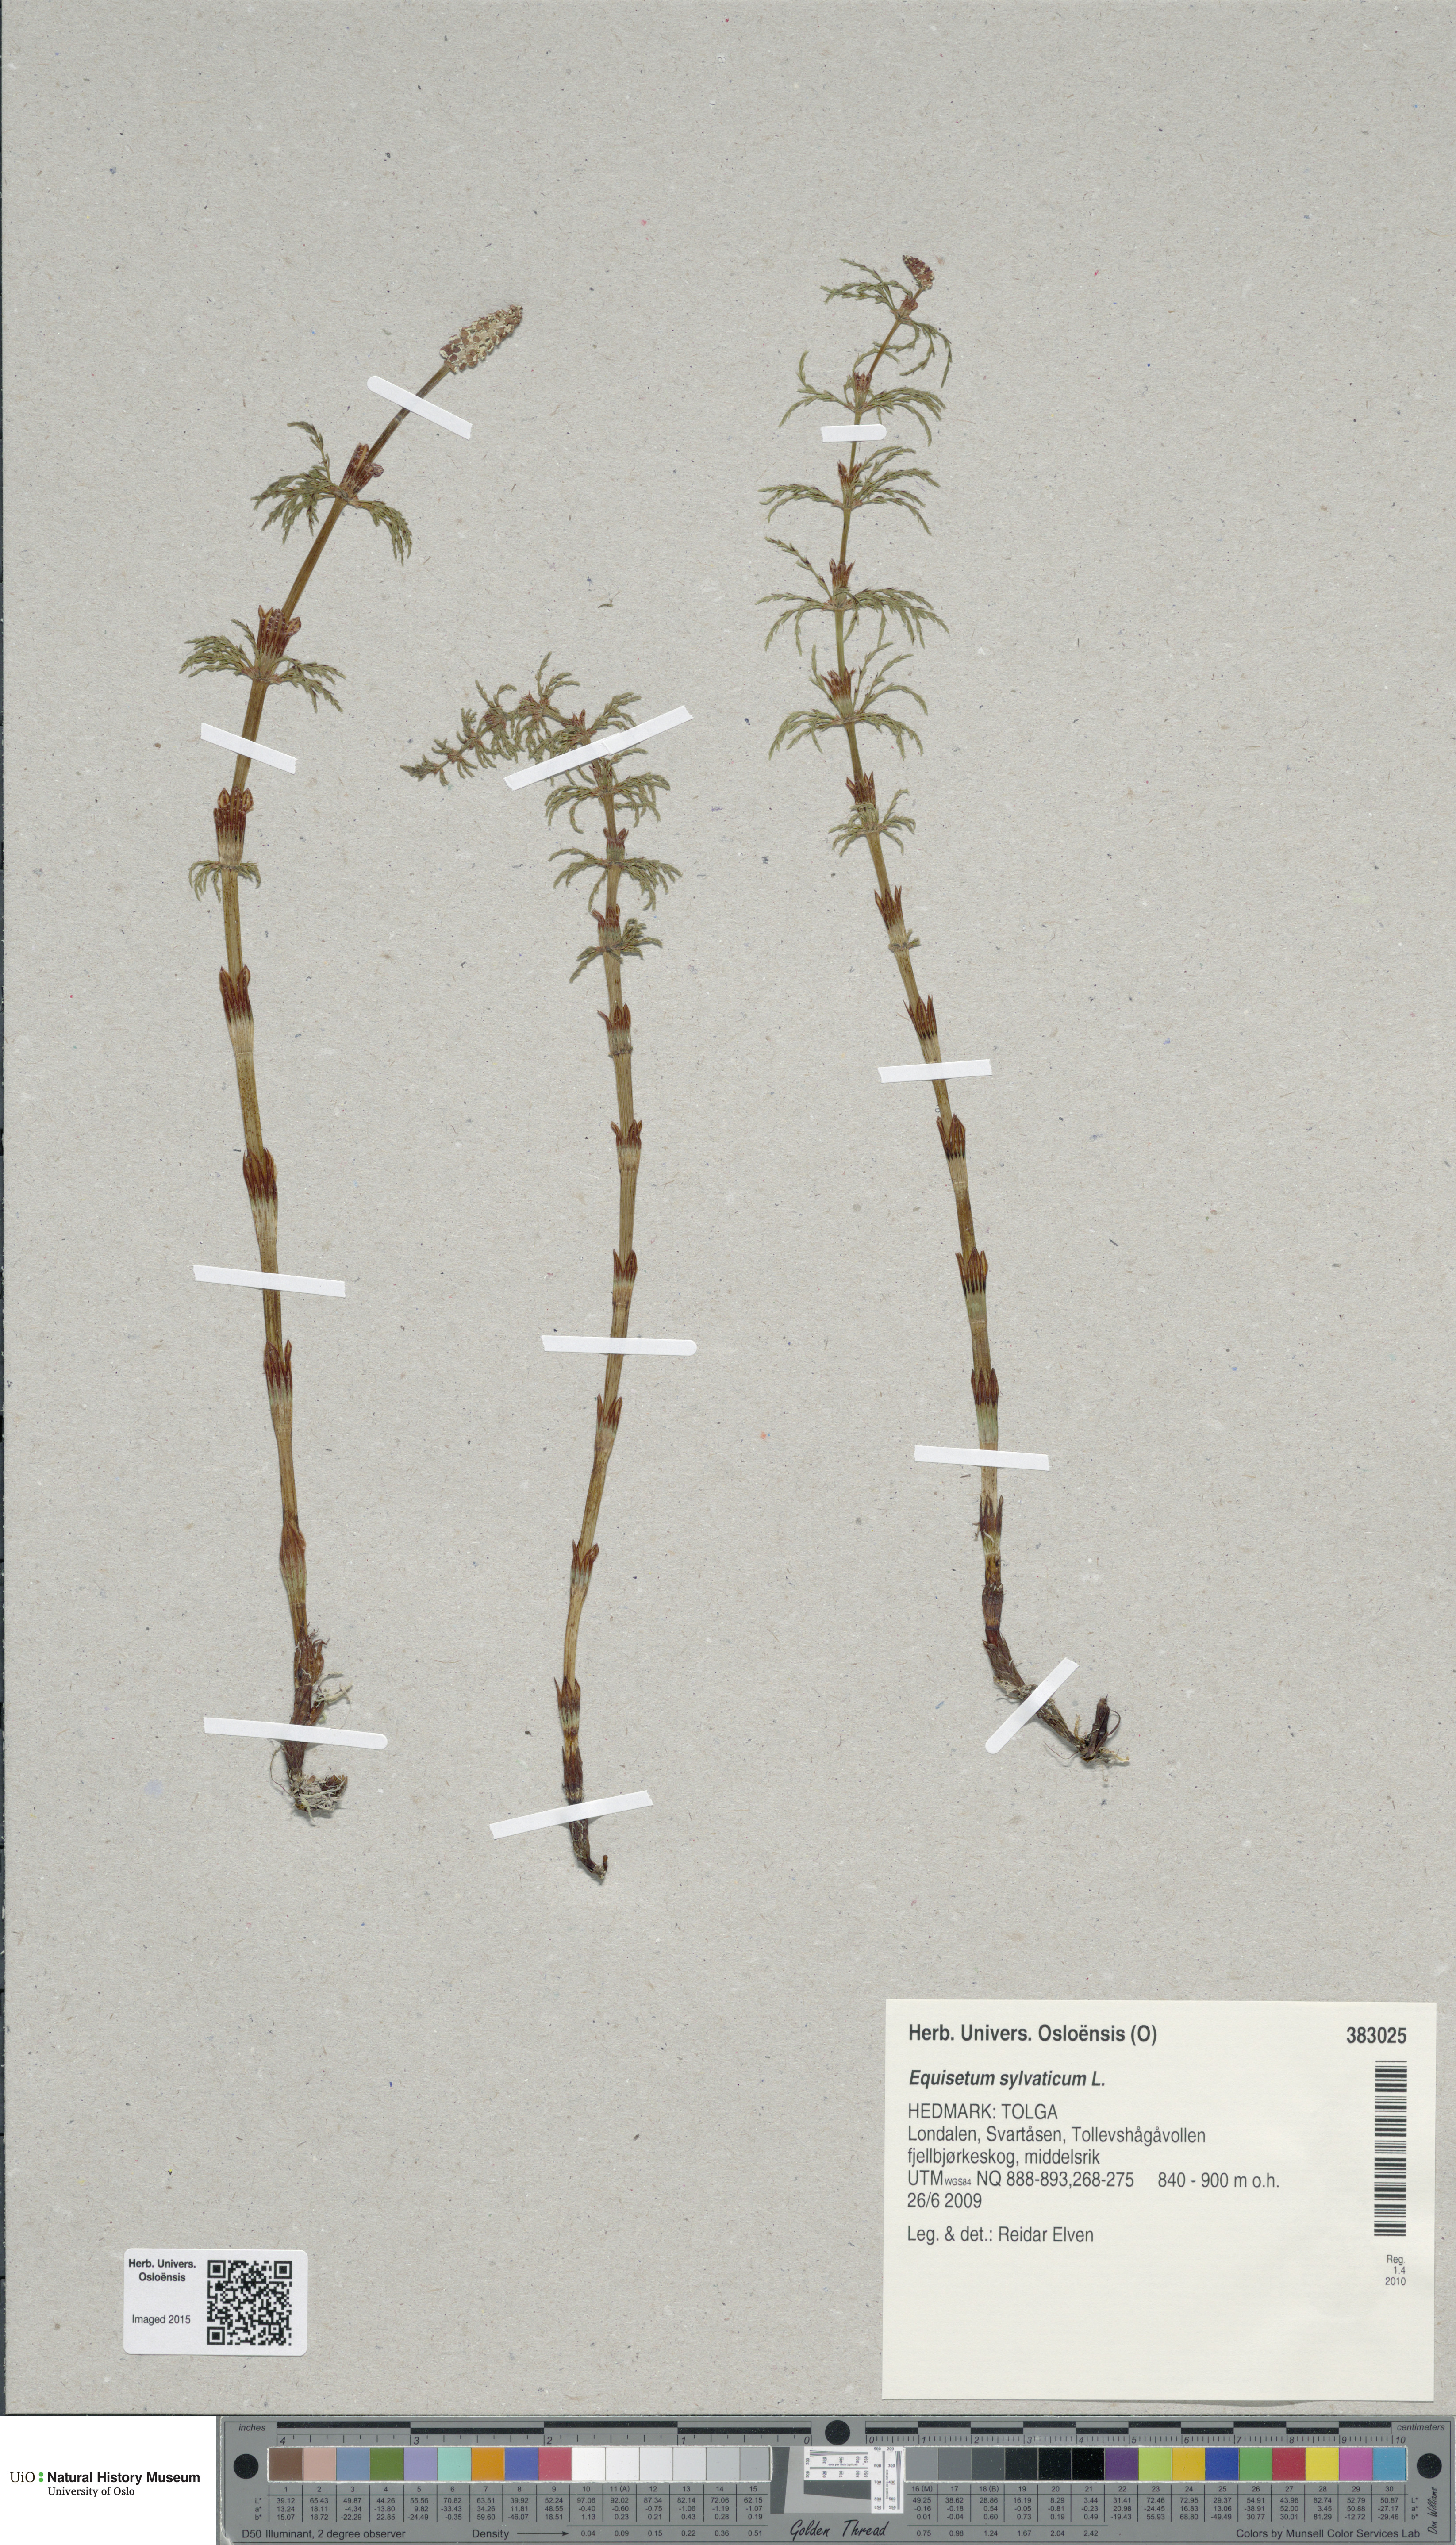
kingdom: Plantae
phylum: Tracheophyta
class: Polypodiopsida
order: Equisetales
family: Equisetaceae
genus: Equisetum
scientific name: Equisetum sylvaticum
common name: Wood horsetail
